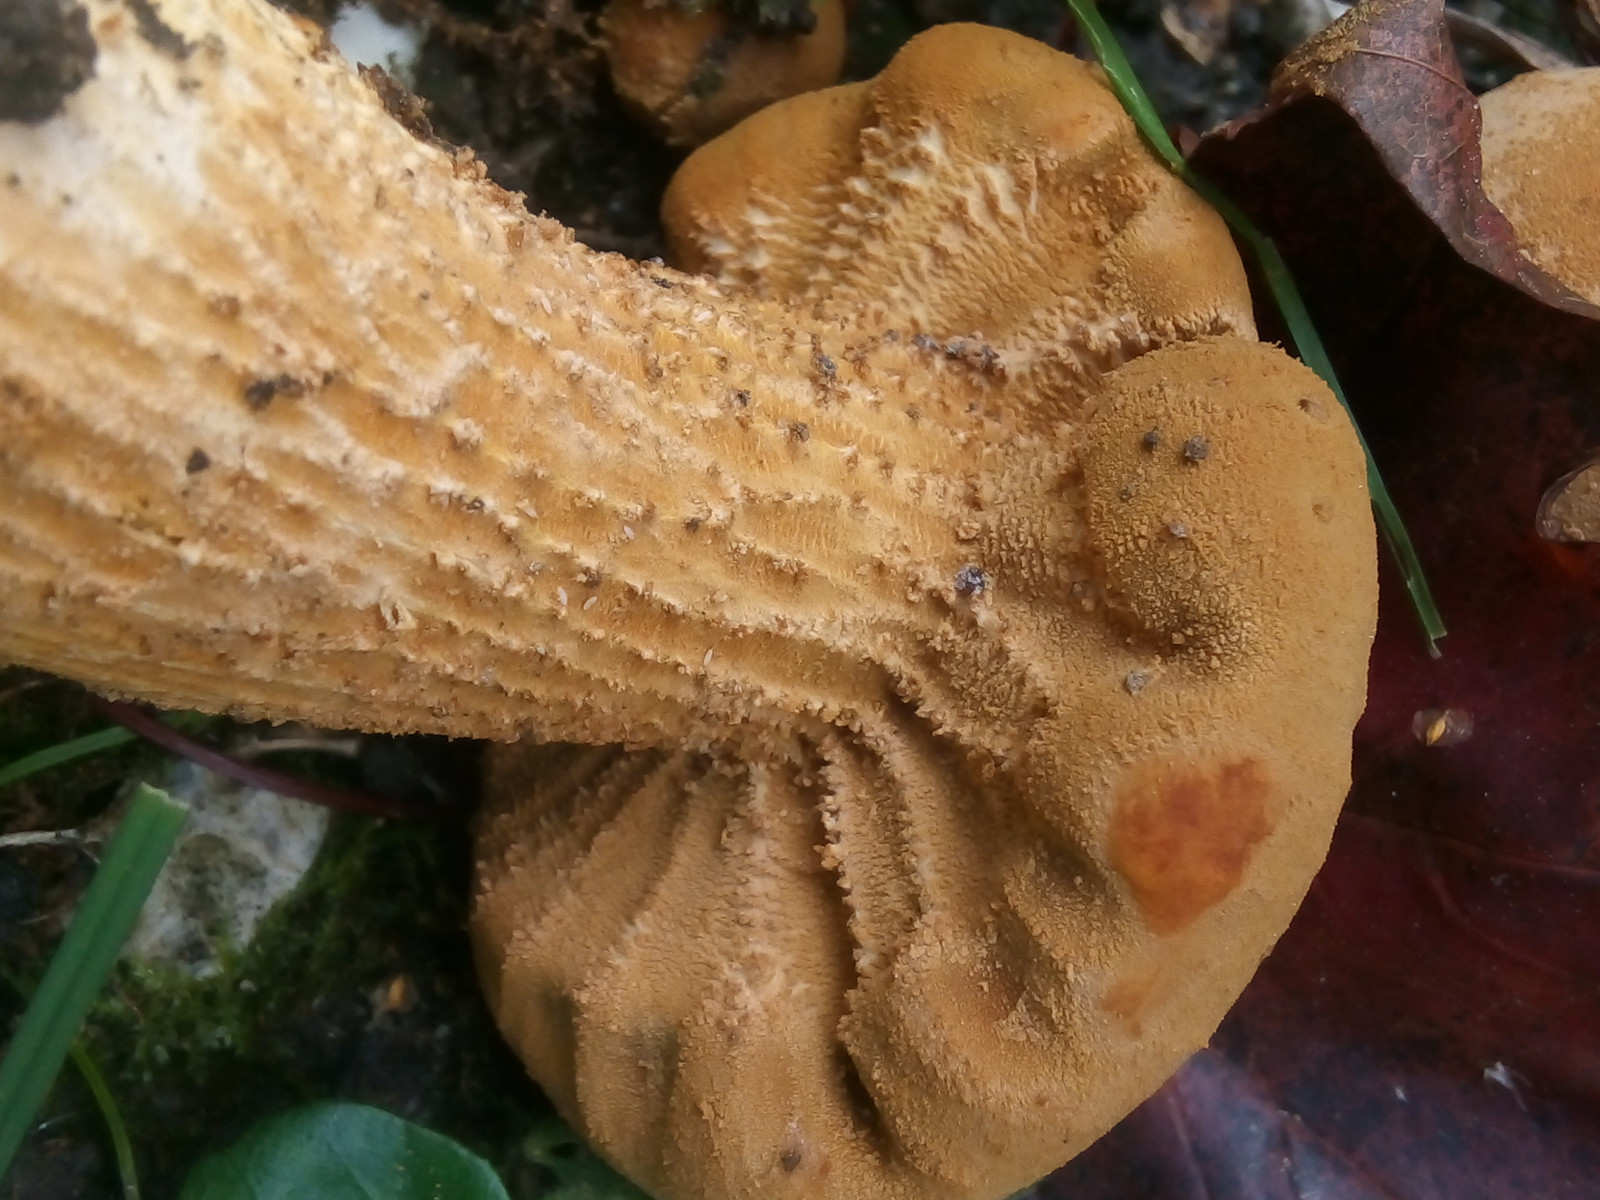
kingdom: Fungi
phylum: Basidiomycota
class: Agaricomycetes
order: Agaricales
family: Tricholomataceae
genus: Phaeolepiota
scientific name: Phaeolepiota aurea
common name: gyldenhat
